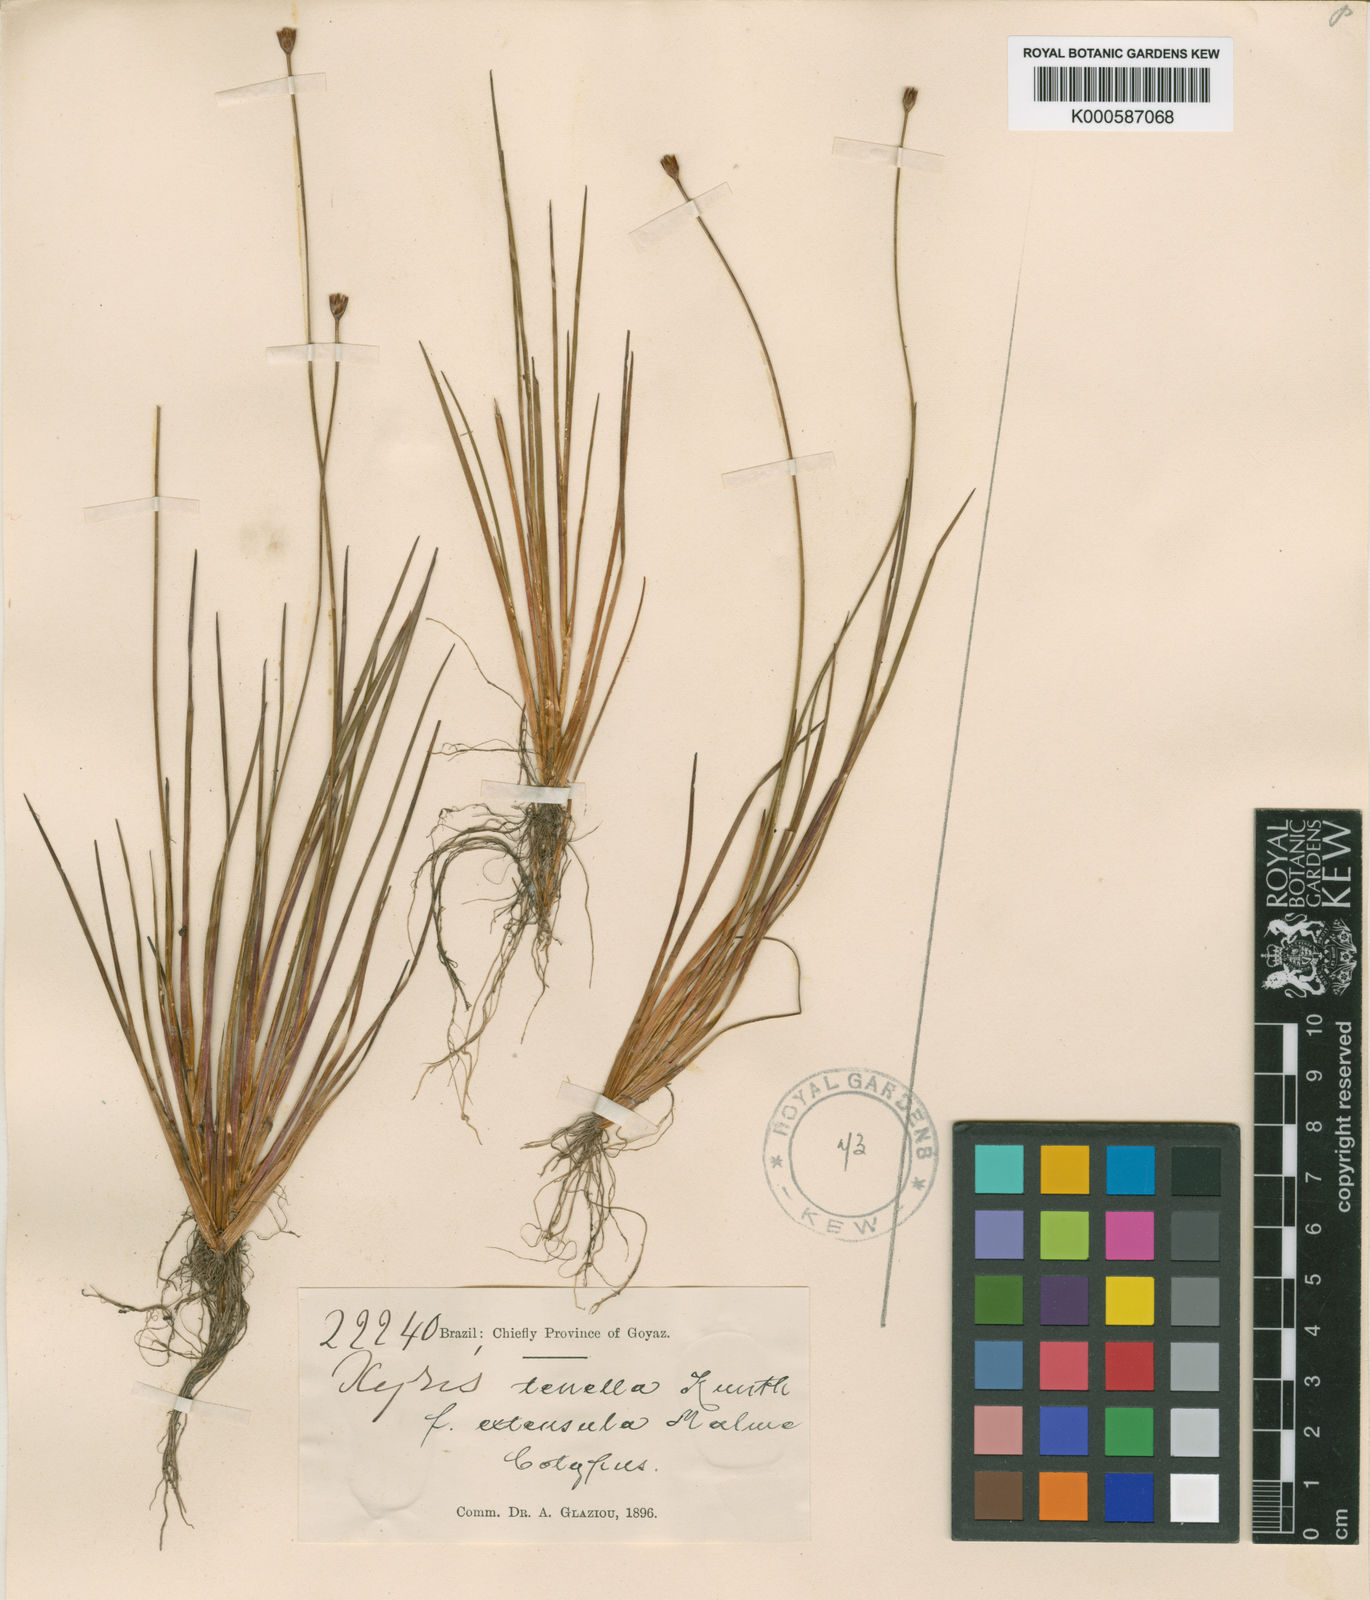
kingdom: Plantae
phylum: Tracheophyta
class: Liliopsida
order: Poales
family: Xyridaceae
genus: Xyris
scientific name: Xyris tenella
